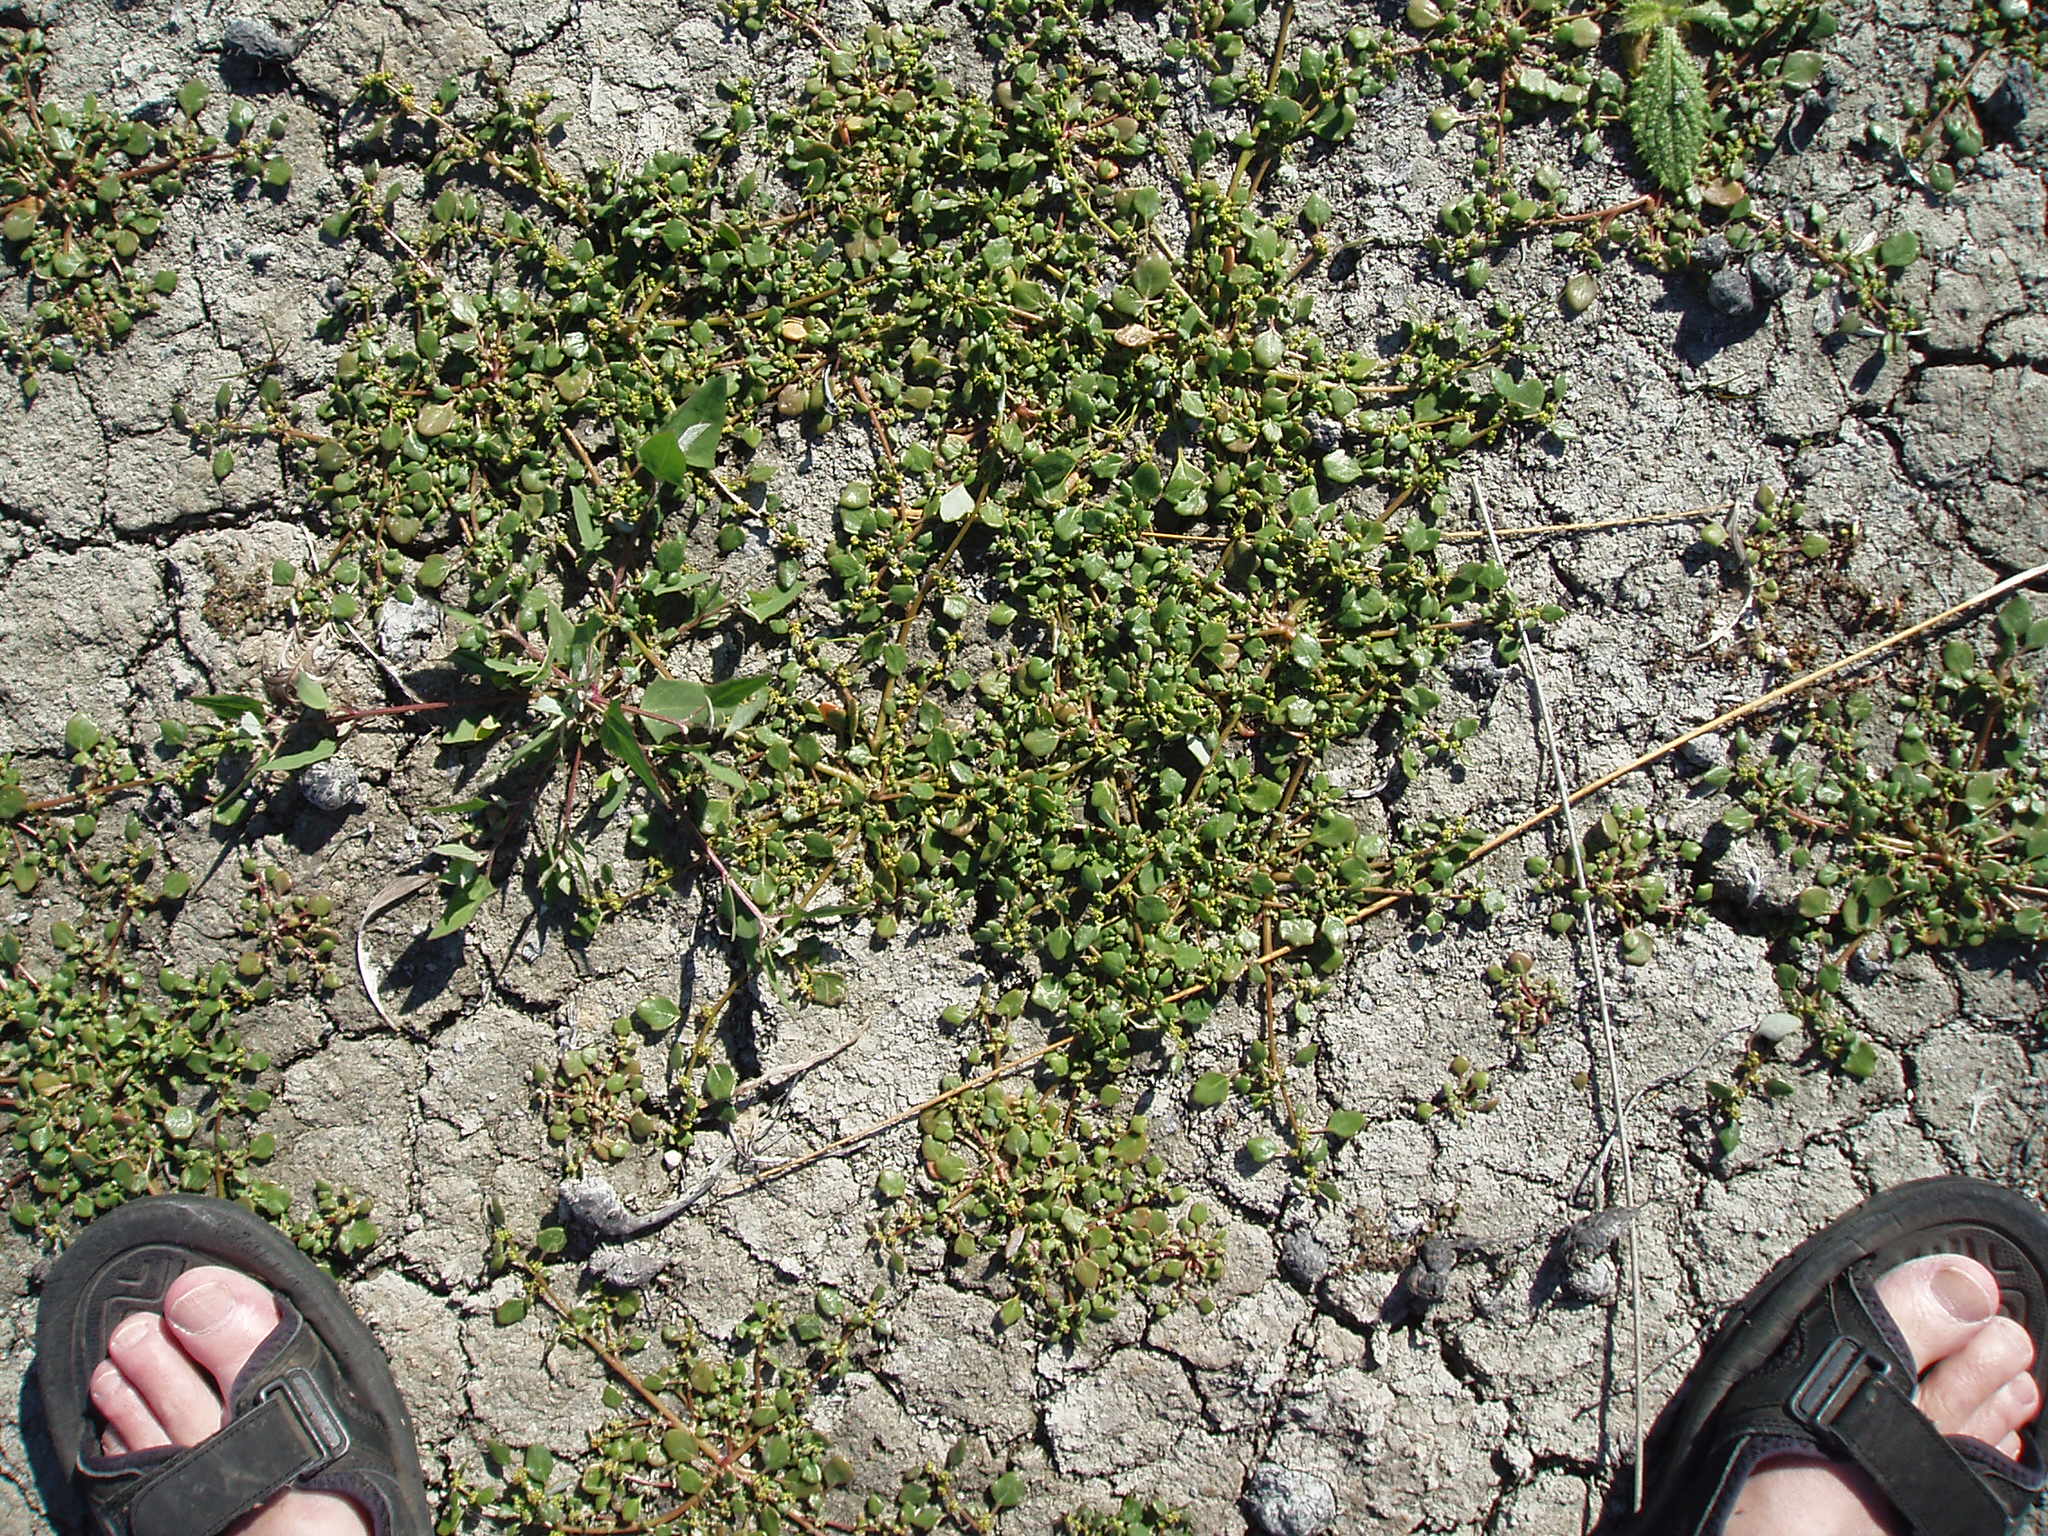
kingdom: Plantae
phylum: Tracheophyta
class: Magnoliopsida
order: Caryophyllales
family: Amaranthaceae
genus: Oxybasis
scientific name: Oxybasis ambigua
